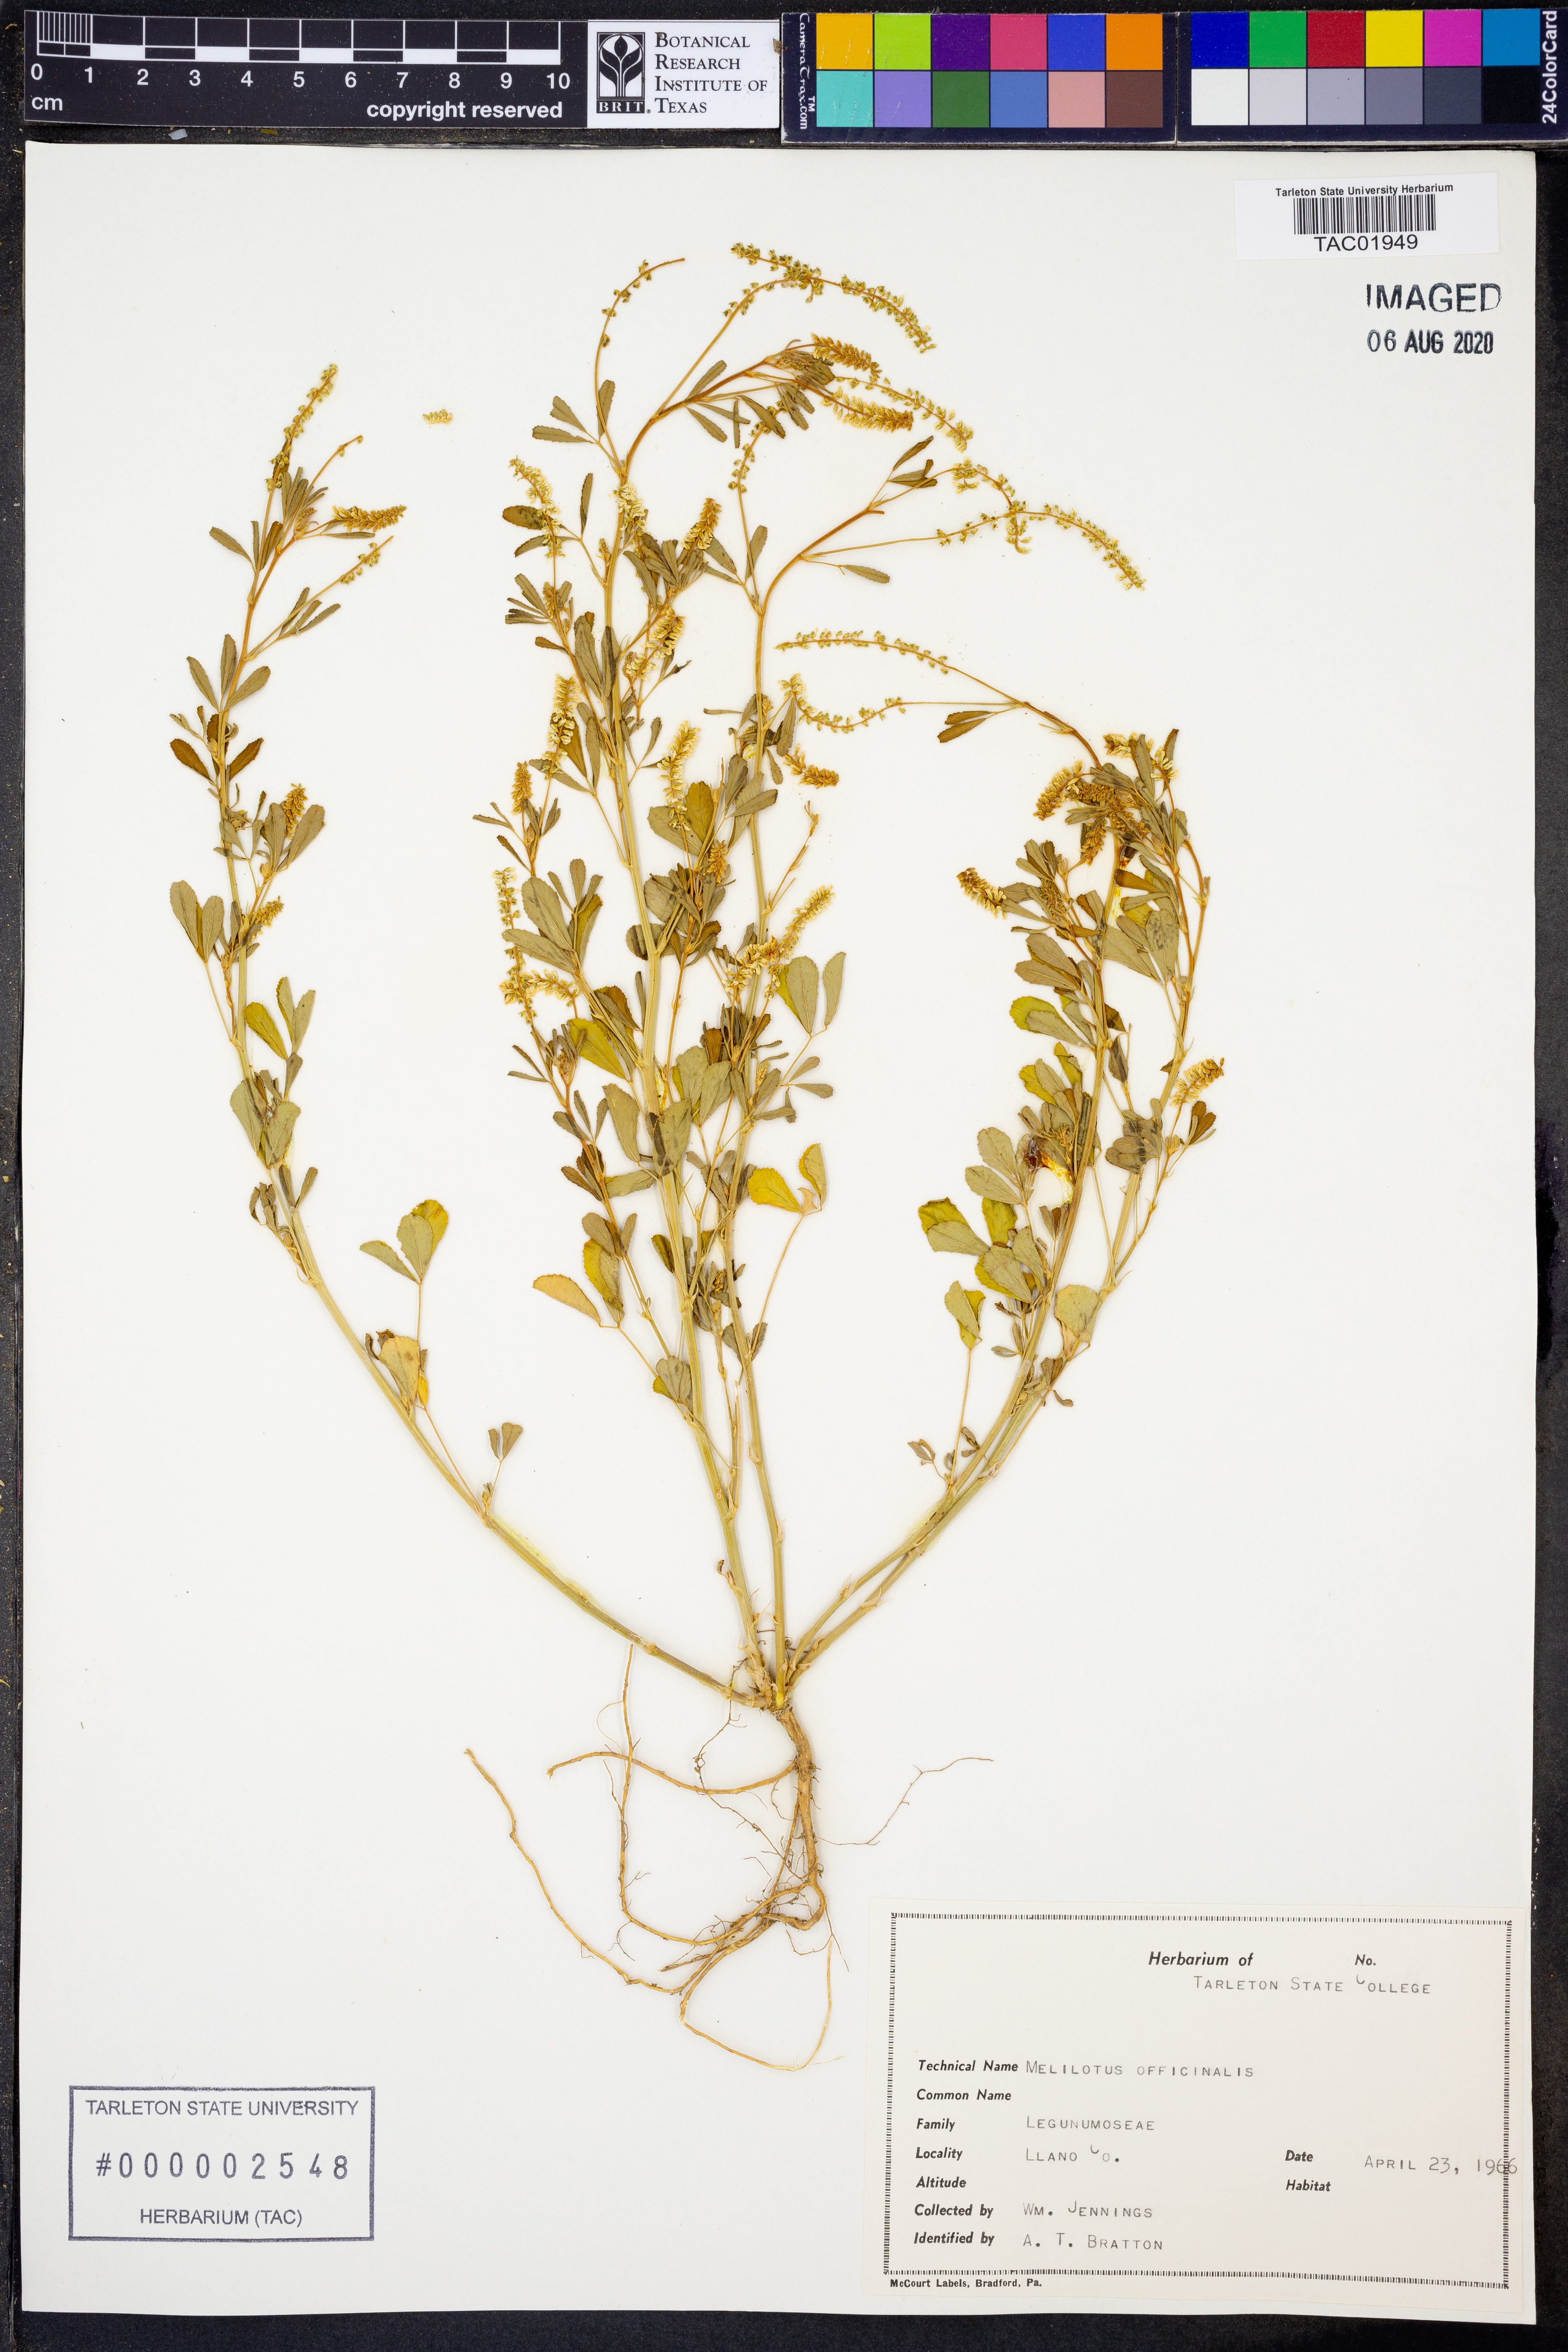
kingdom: Plantae
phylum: Tracheophyta
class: Magnoliopsida
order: Fabales
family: Fabaceae
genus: Melilotus
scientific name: Melilotus officinalis
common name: Sweetclover
